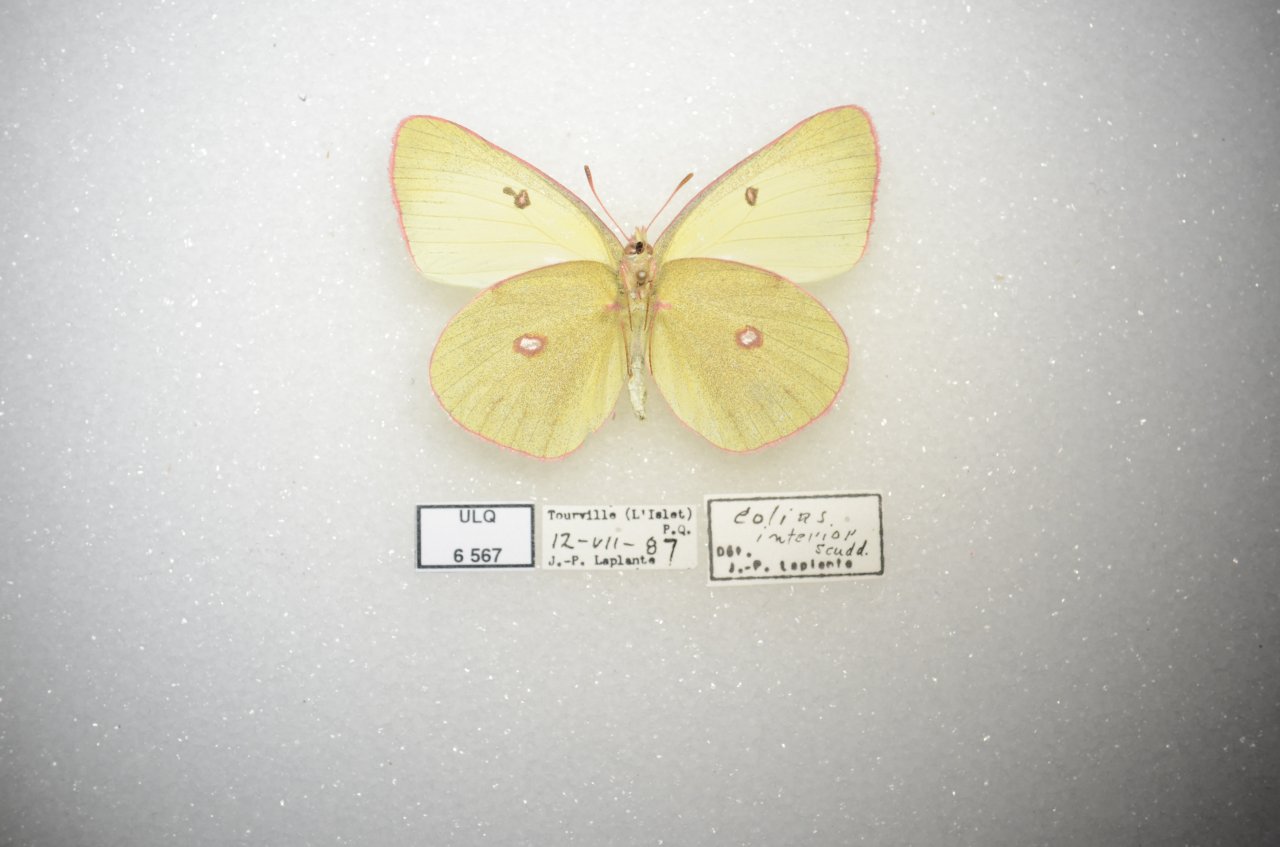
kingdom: Animalia
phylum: Arthropoda
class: Insecta
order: Lepidoptera
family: Pieridae
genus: Colias
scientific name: Colias interior
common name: Pink-edged Sulphur
